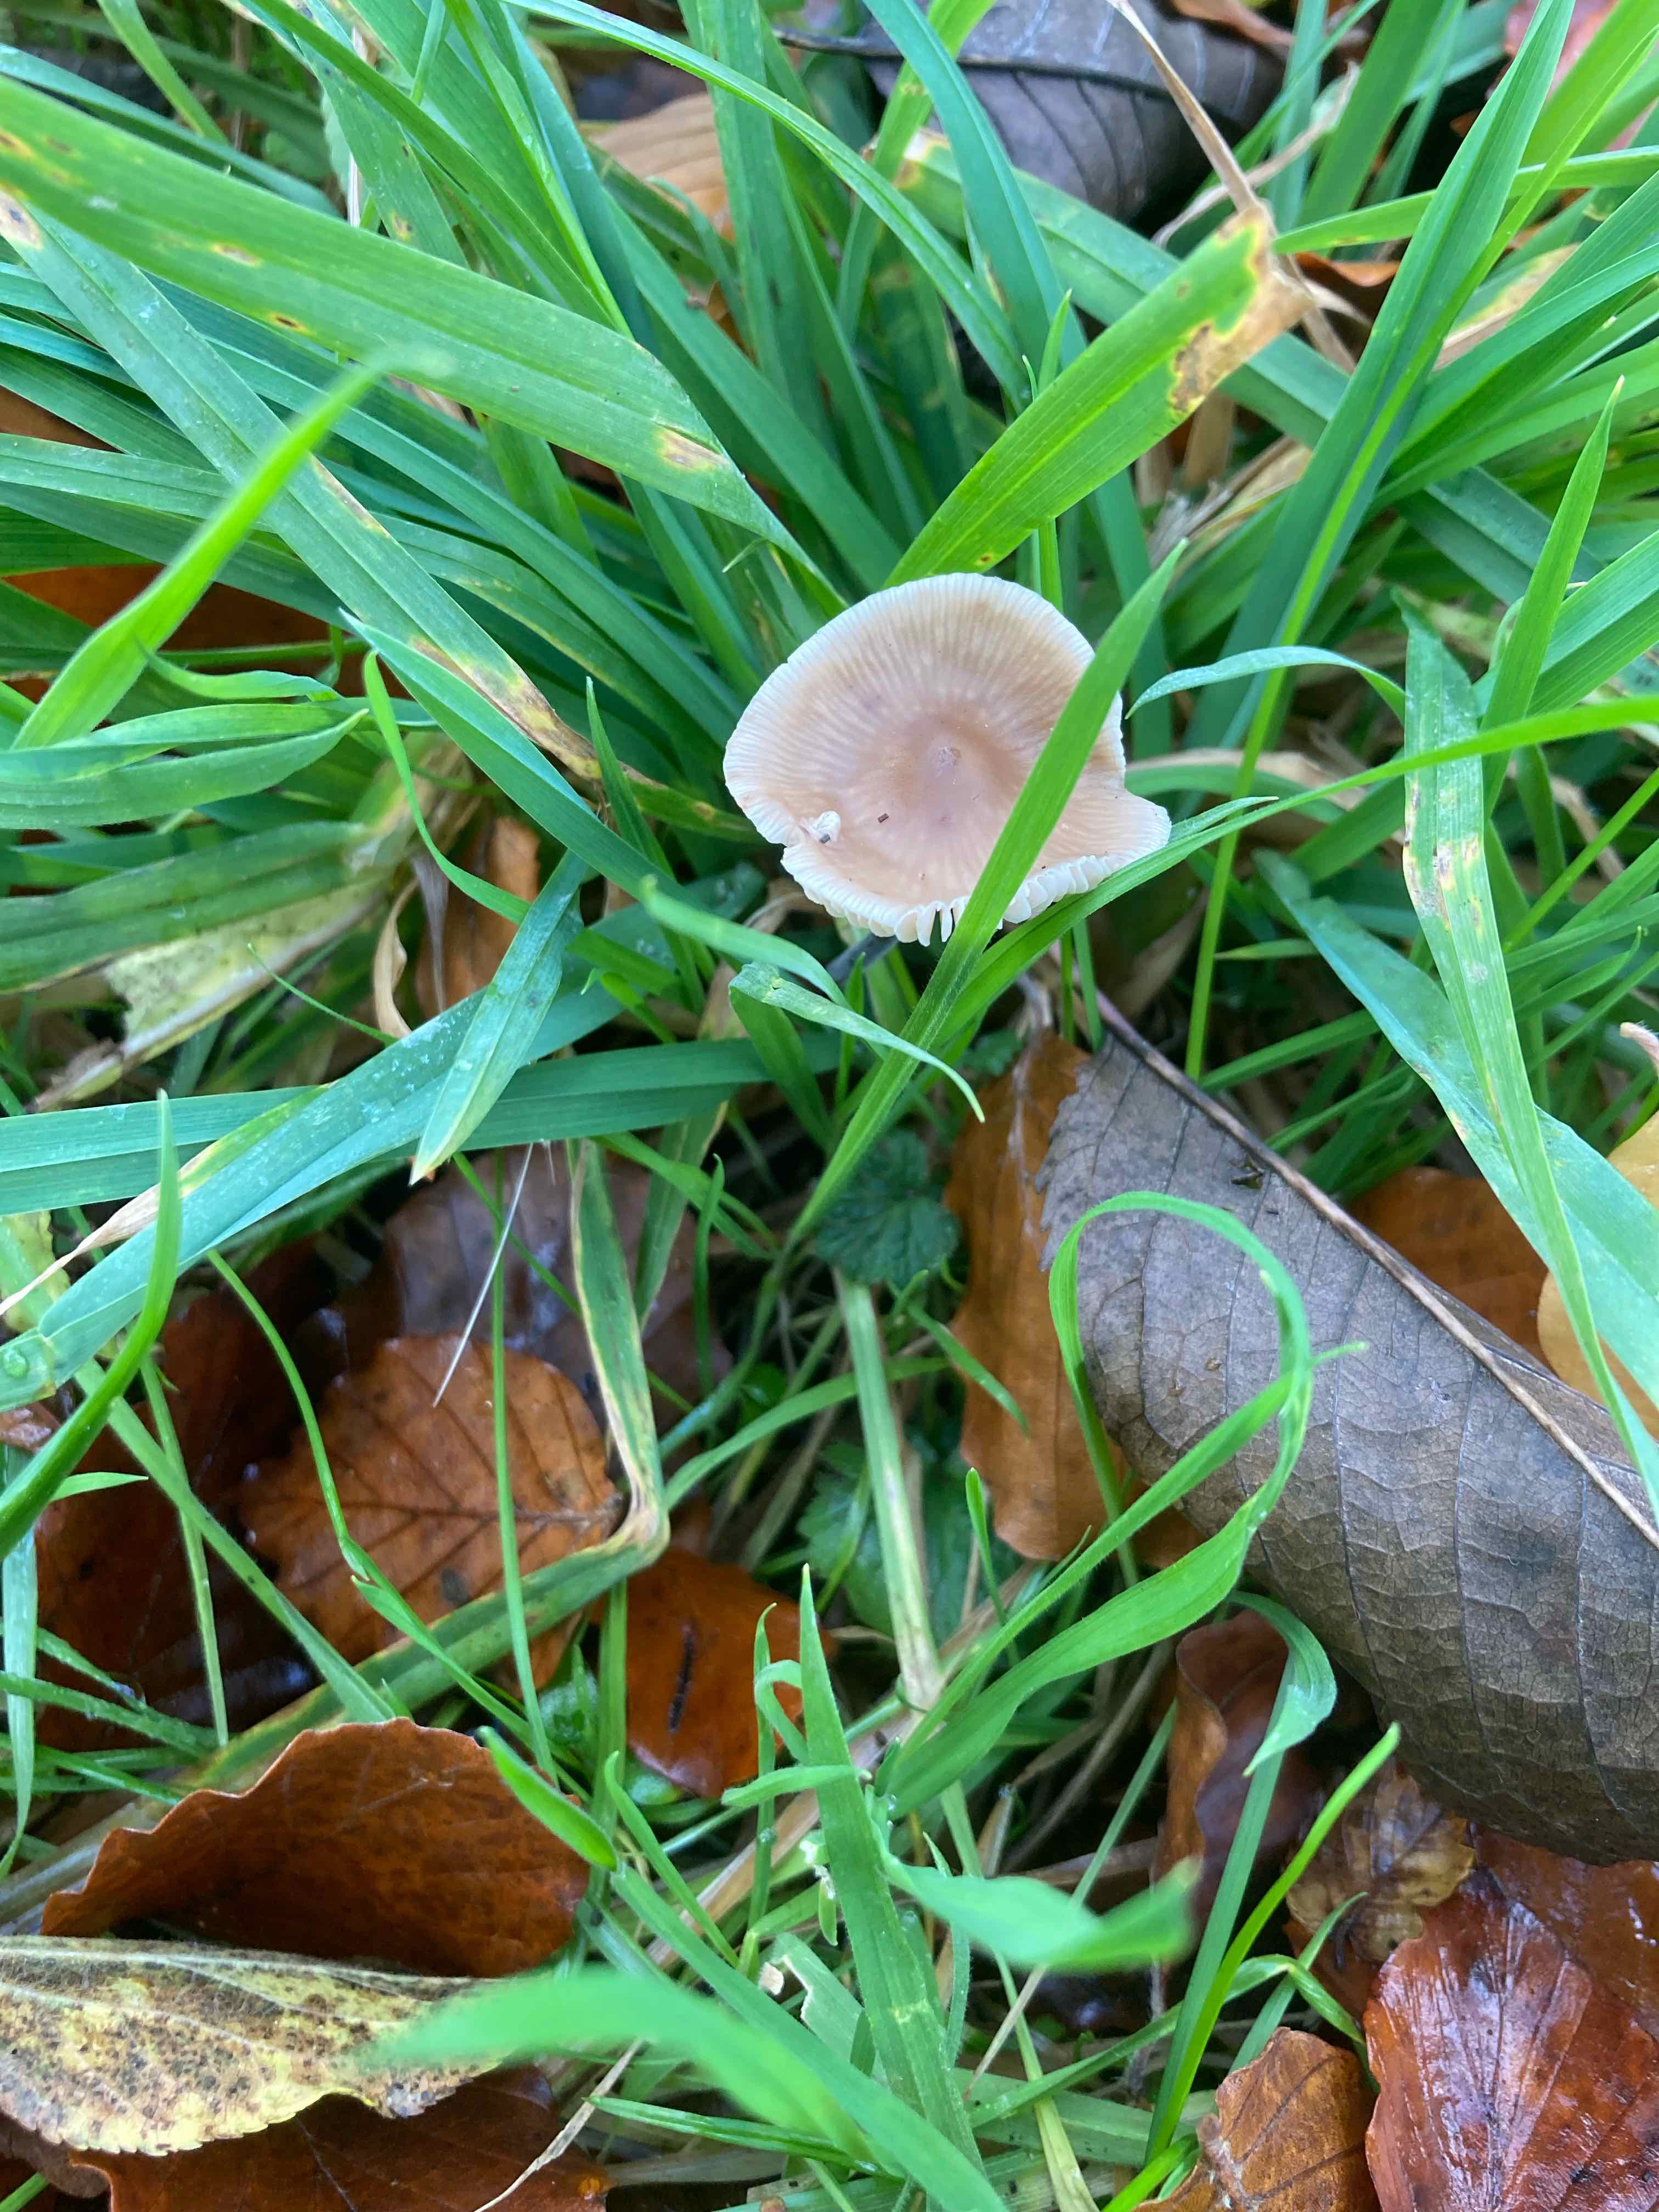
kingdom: Fungi
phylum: Basidiomycota
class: Agaricomycetes
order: Agaricales
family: Omphalotaceae
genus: Mycetinis
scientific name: Mycetinis alliaceus
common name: stor løghat
